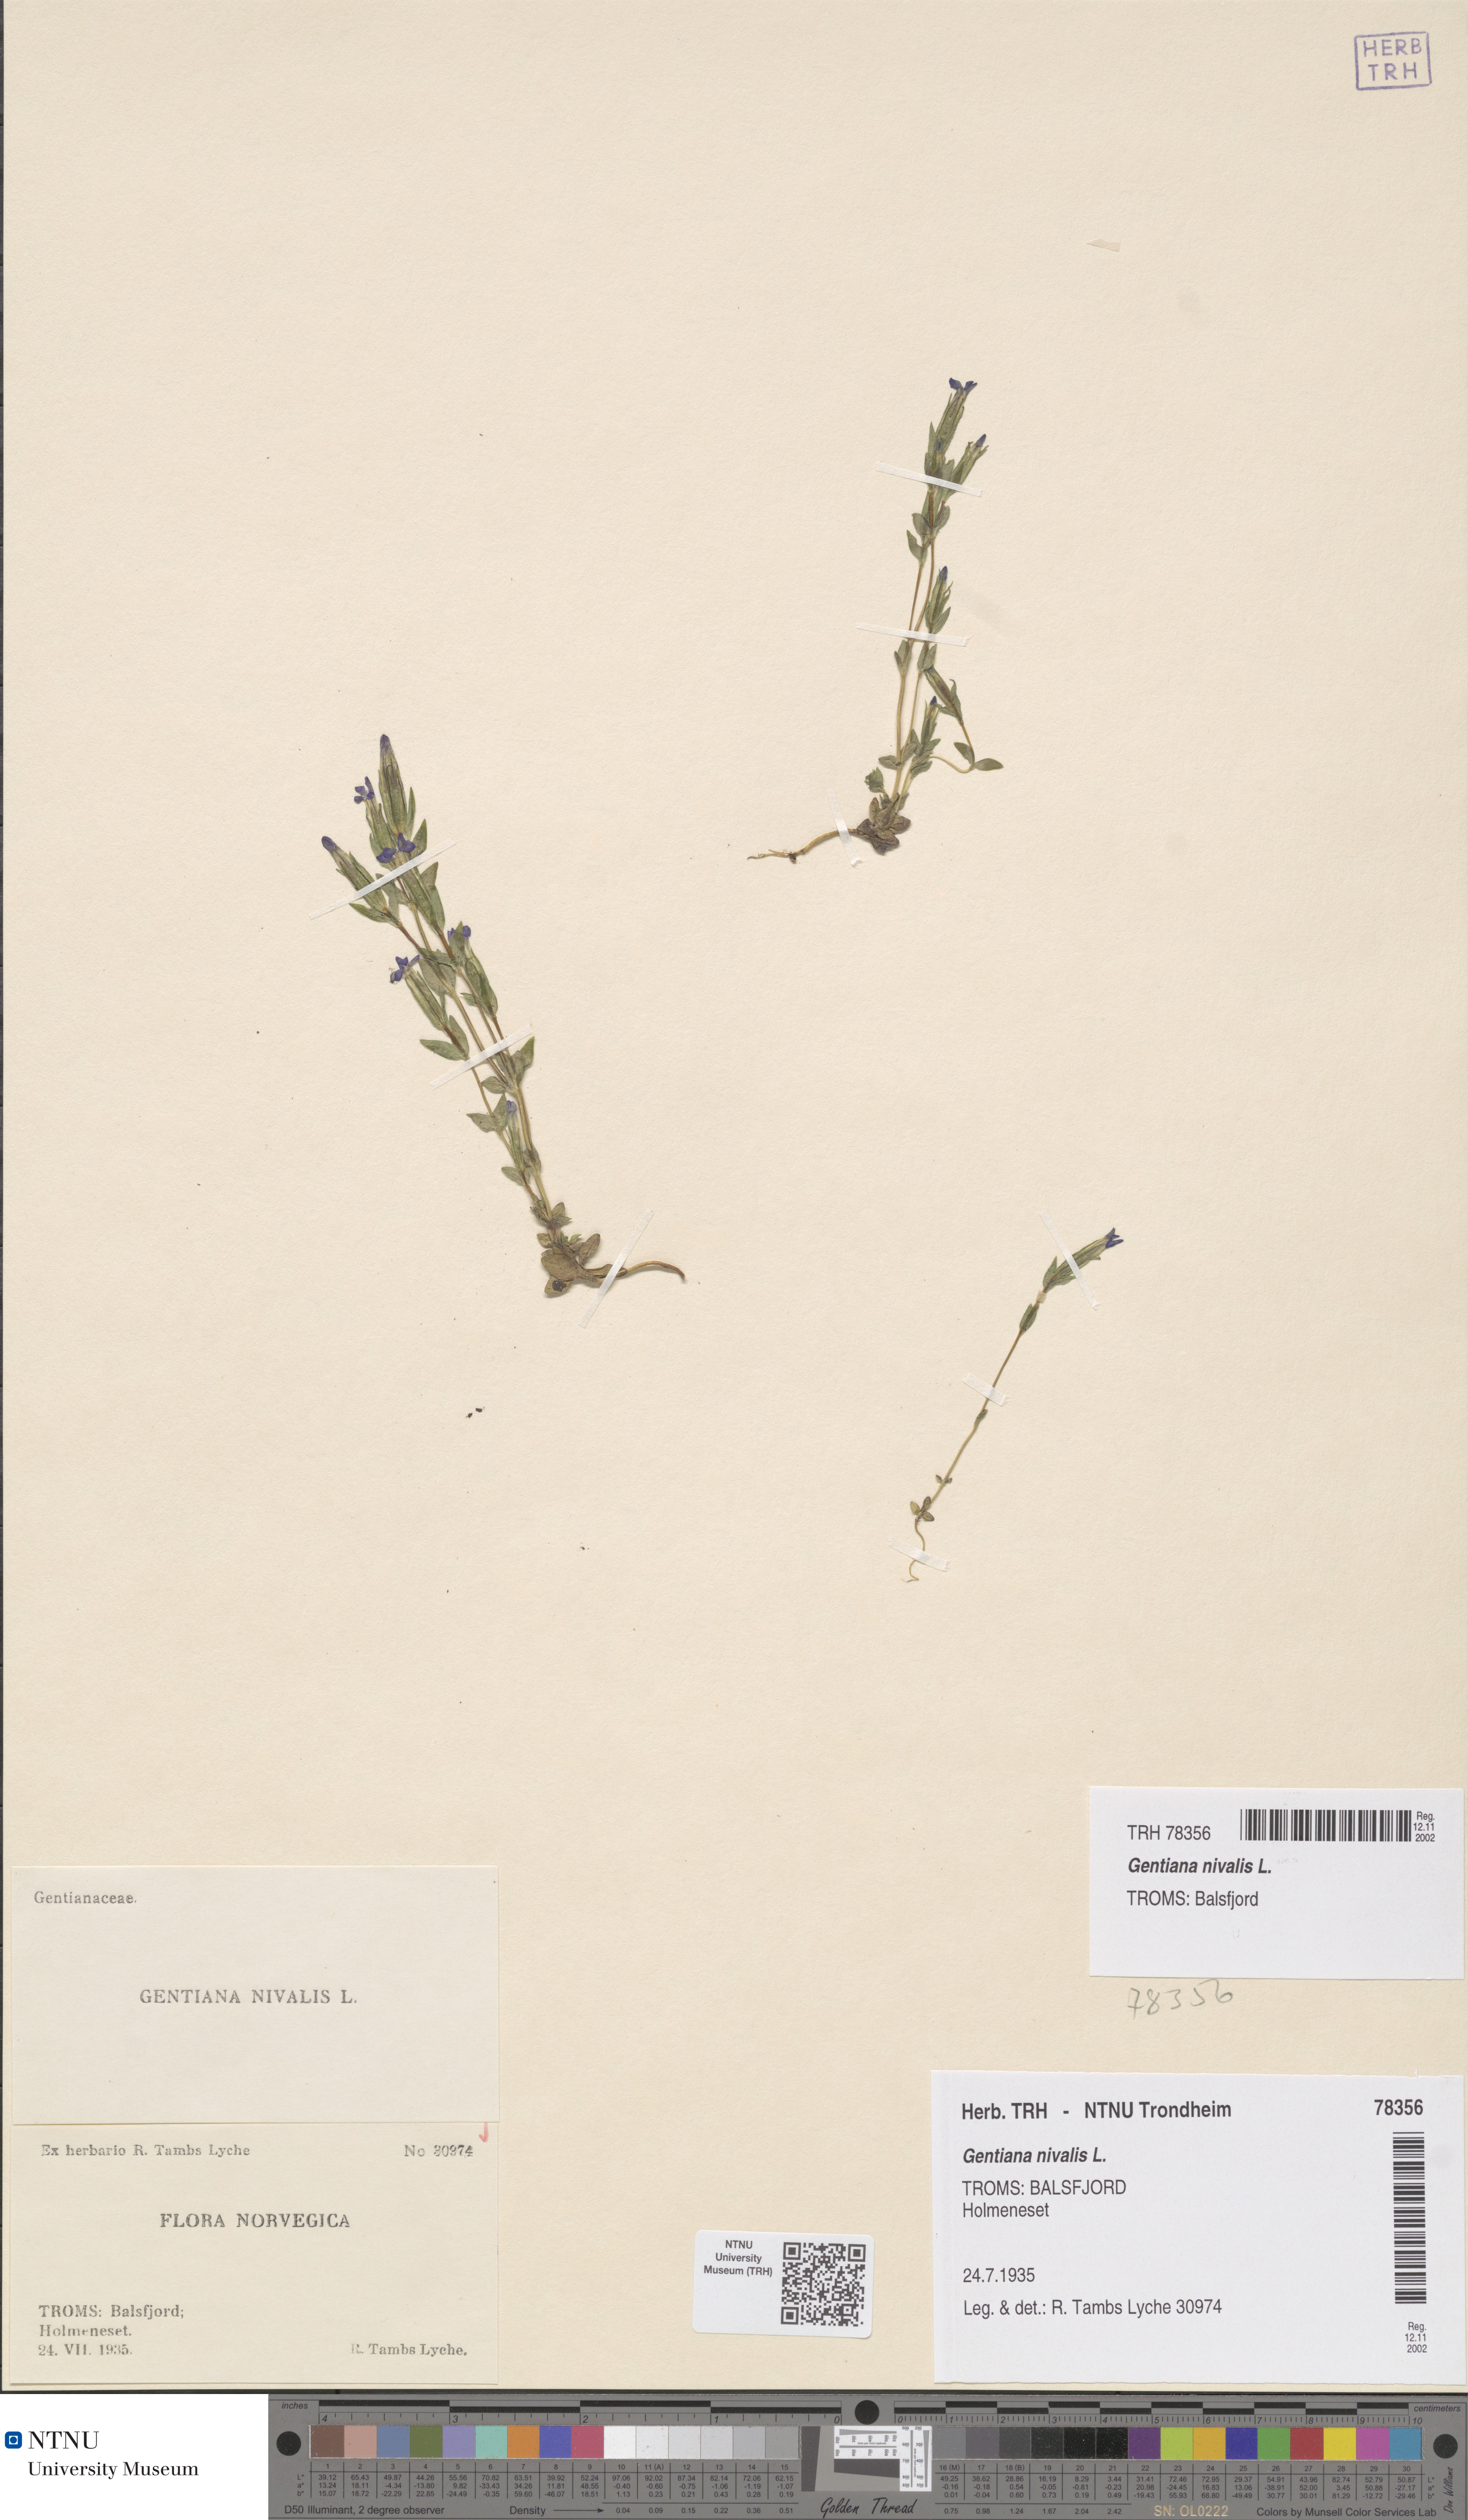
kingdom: Plantae
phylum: Tracheophyta
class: Magnoliopsida
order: Gentianales
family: Gentianaceae
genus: Gentiana
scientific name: Gentiana nivalis
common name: Alpine gentian
